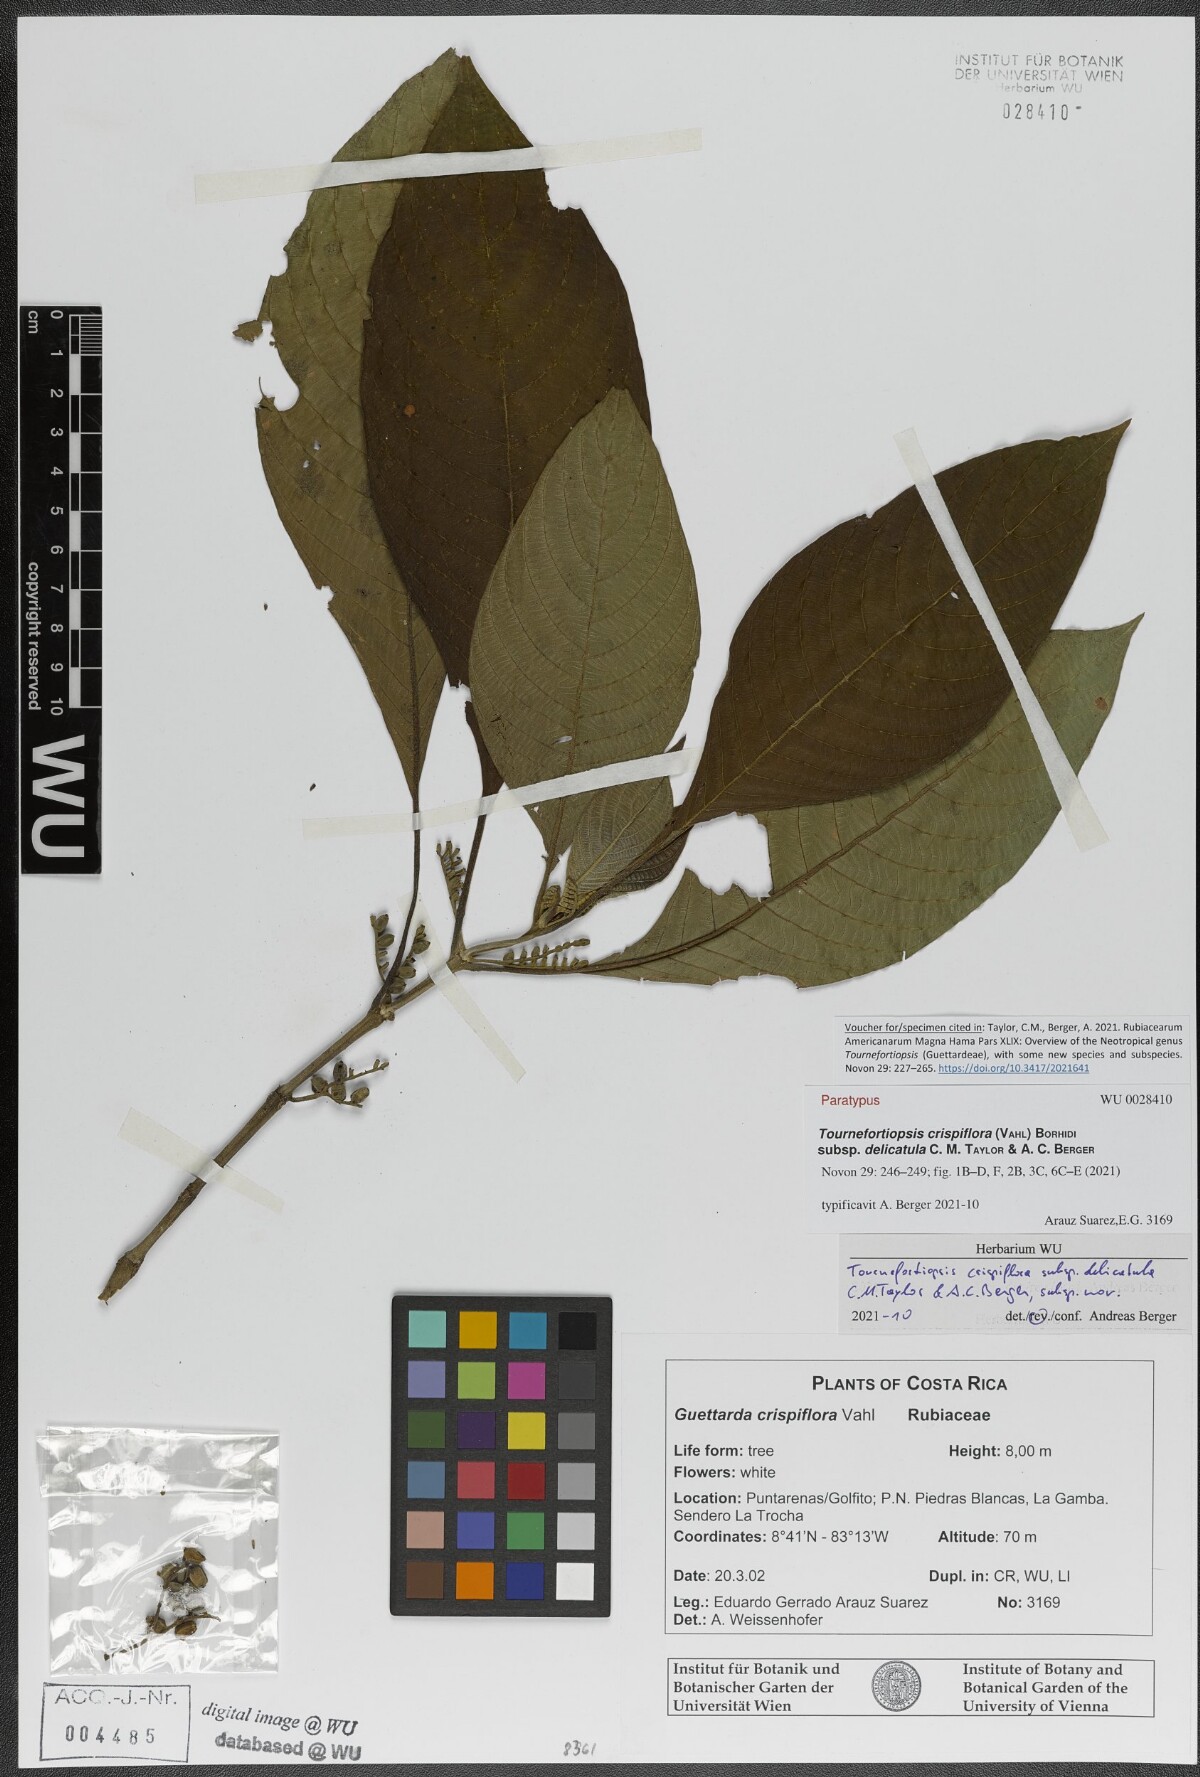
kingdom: Plantae
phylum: Tracheophyta
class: Magnoliopsida
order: Gentianales
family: Rubiaceae
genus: Tournefortiopsis
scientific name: Tournefortiopsis crispiflora
